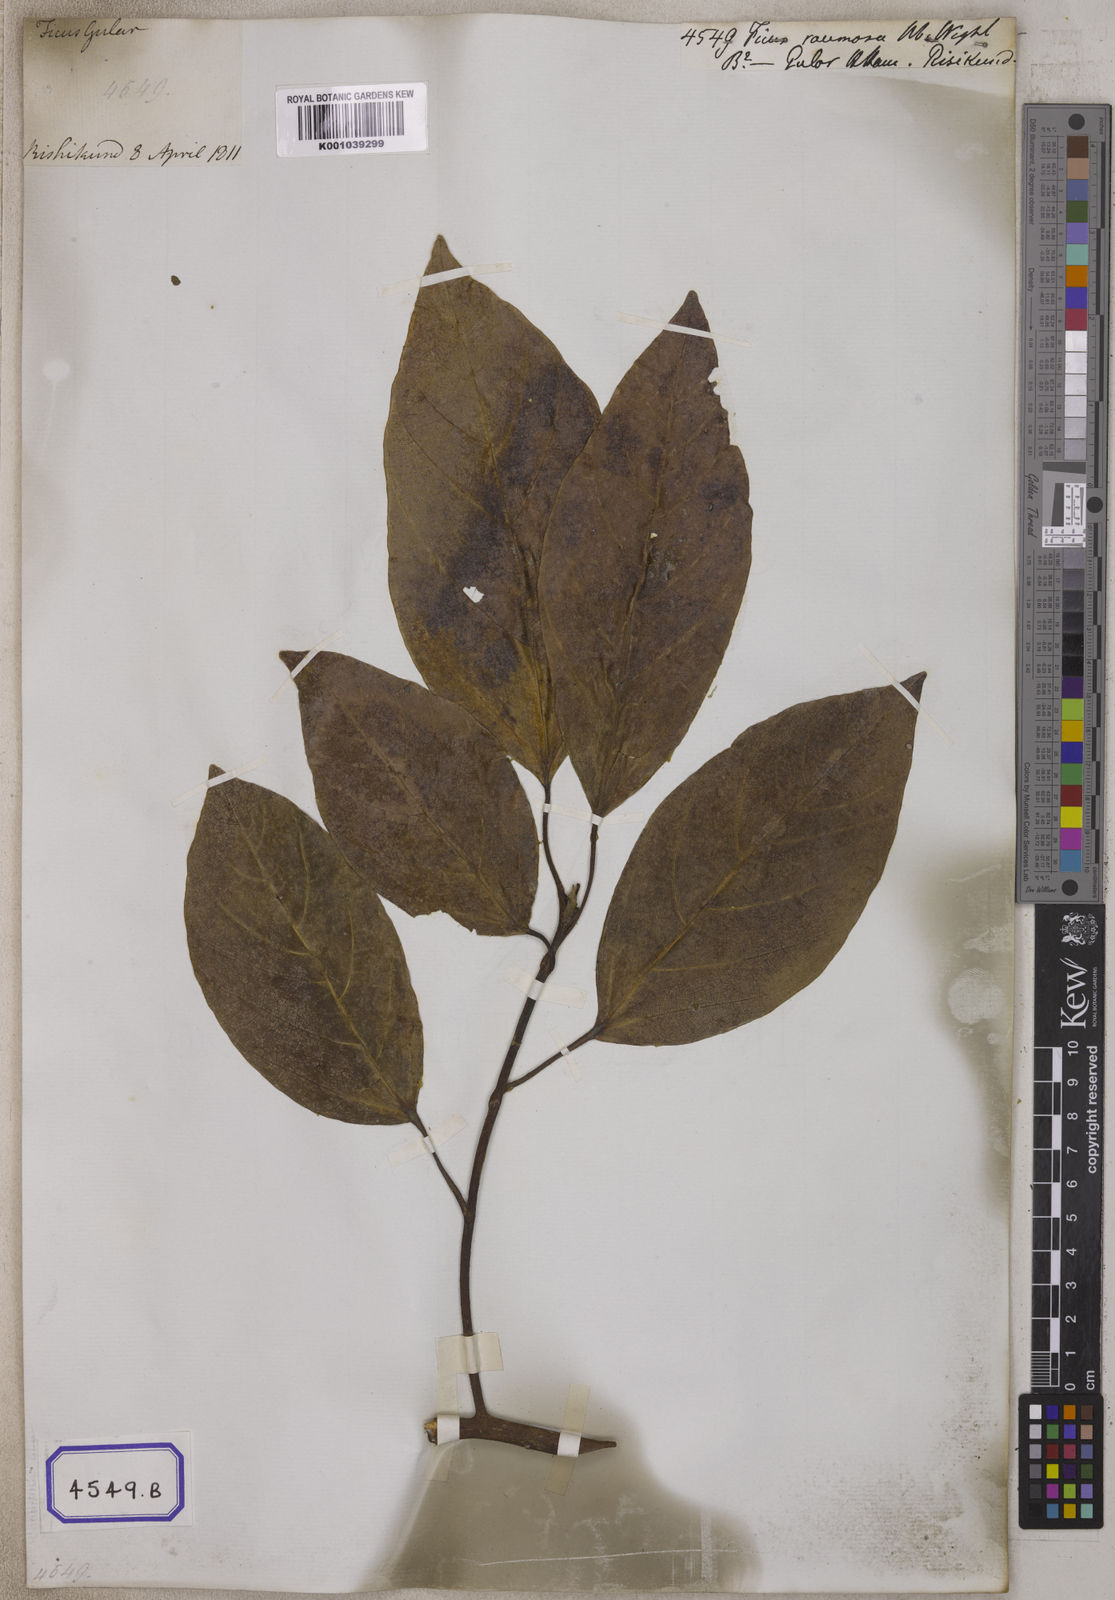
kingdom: Plantae
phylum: Tracheophyta
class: Magnoliopsida
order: Rosales
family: Moraceae
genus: Ficus
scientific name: Ficus
